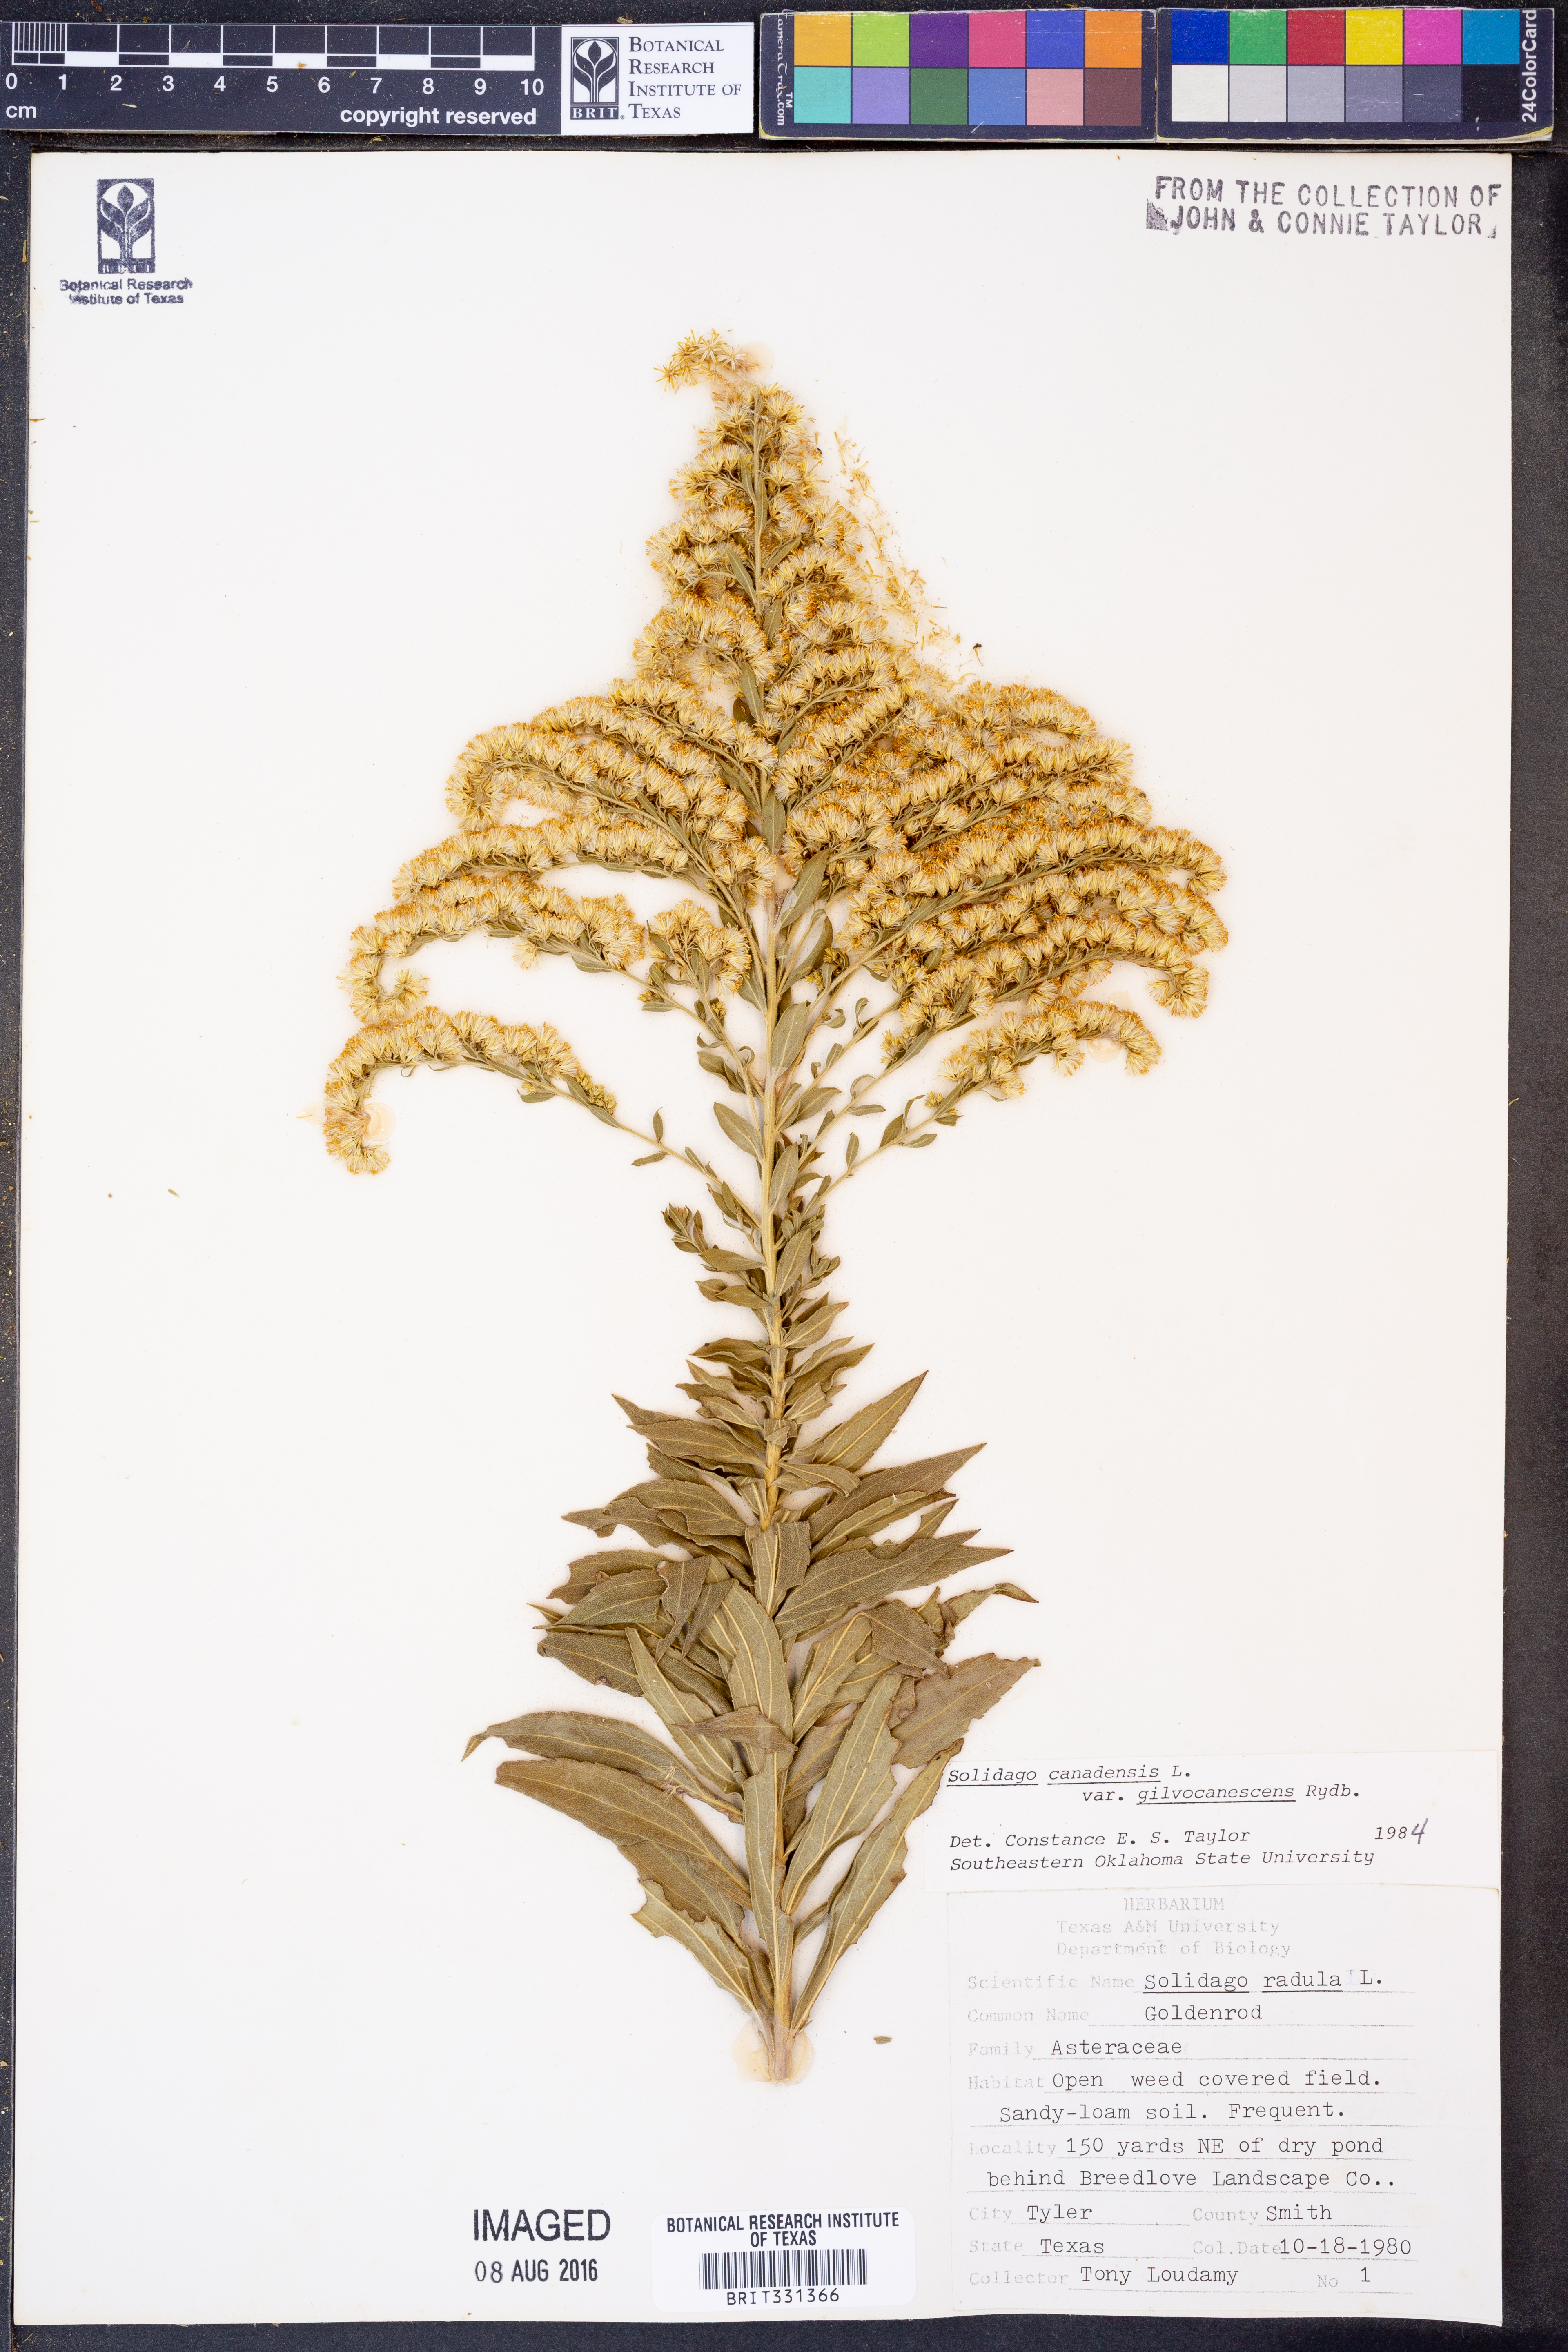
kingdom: Plantae
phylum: Tracheophyta
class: Magnoliopsida
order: Asterales
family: Asteraceae
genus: Solidago
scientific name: Solidago altissima
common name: Late goldenrod
